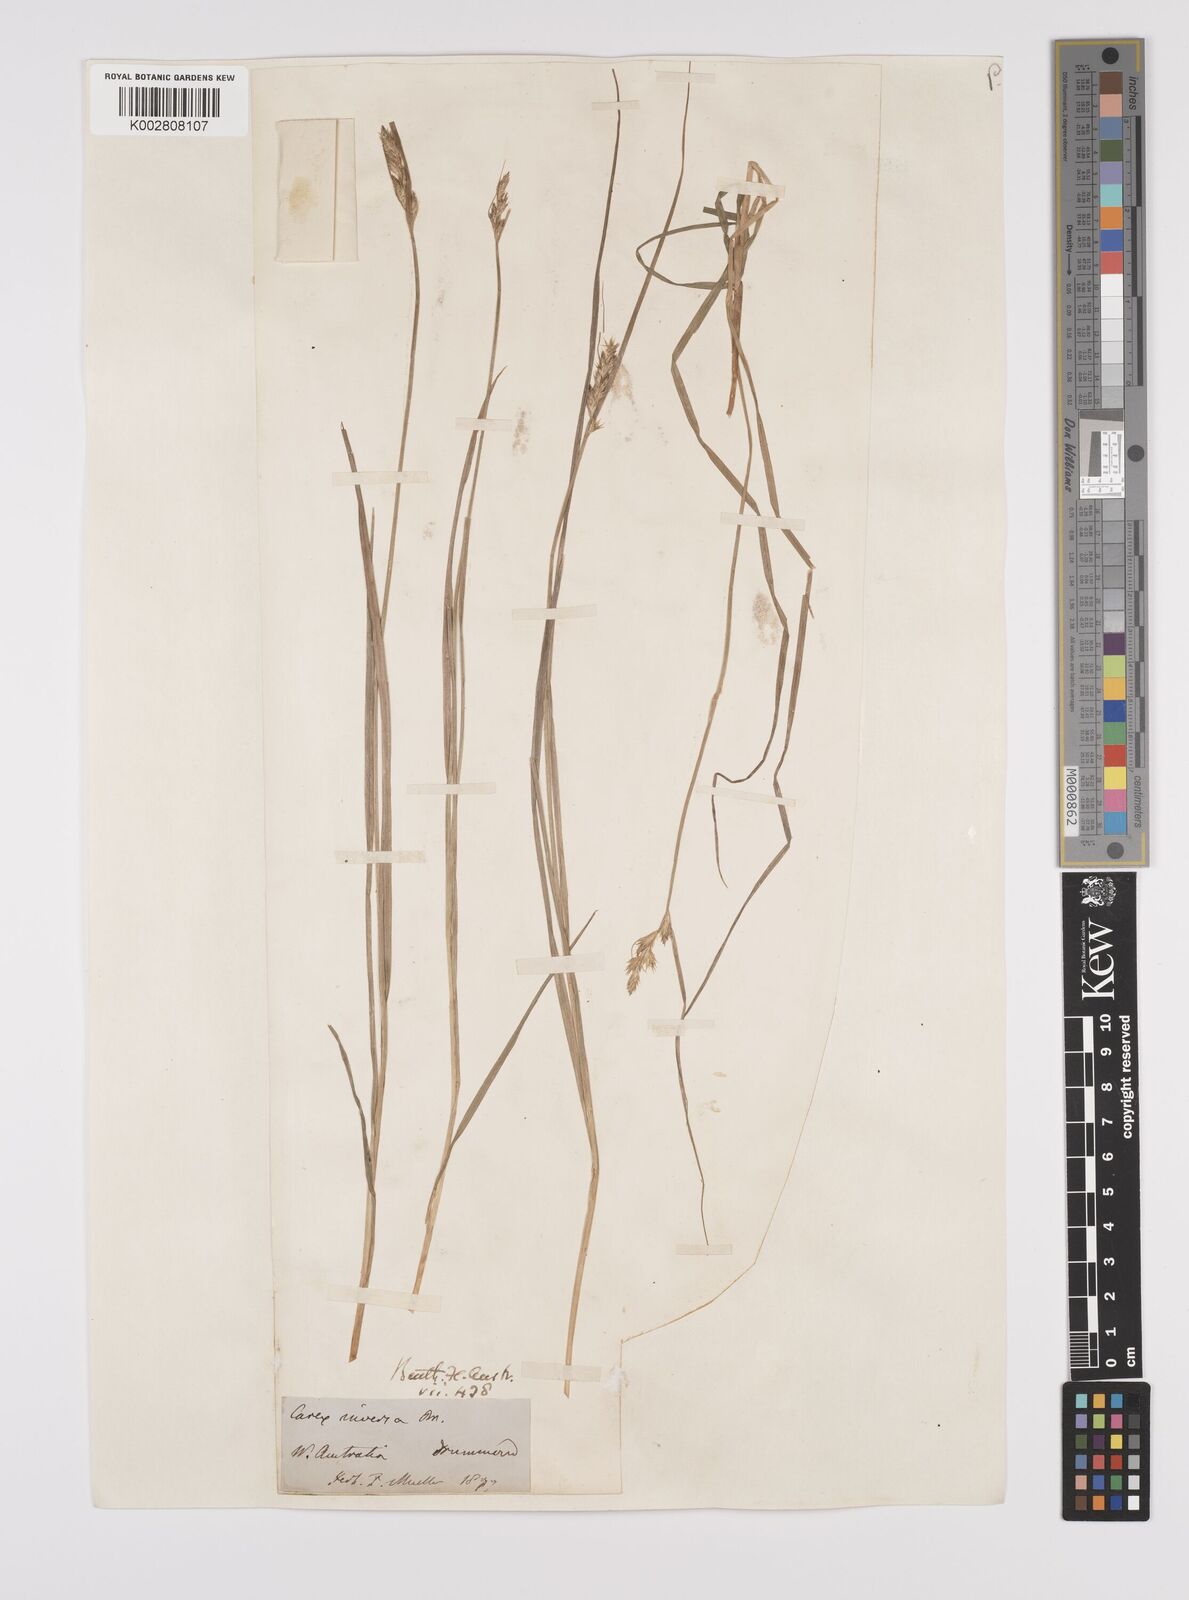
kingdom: Plantae
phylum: Tracheophyta
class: Liliopsida
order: Poales
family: Cyperaceae
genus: Carex
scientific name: Carex inversa
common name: Knob sedge
